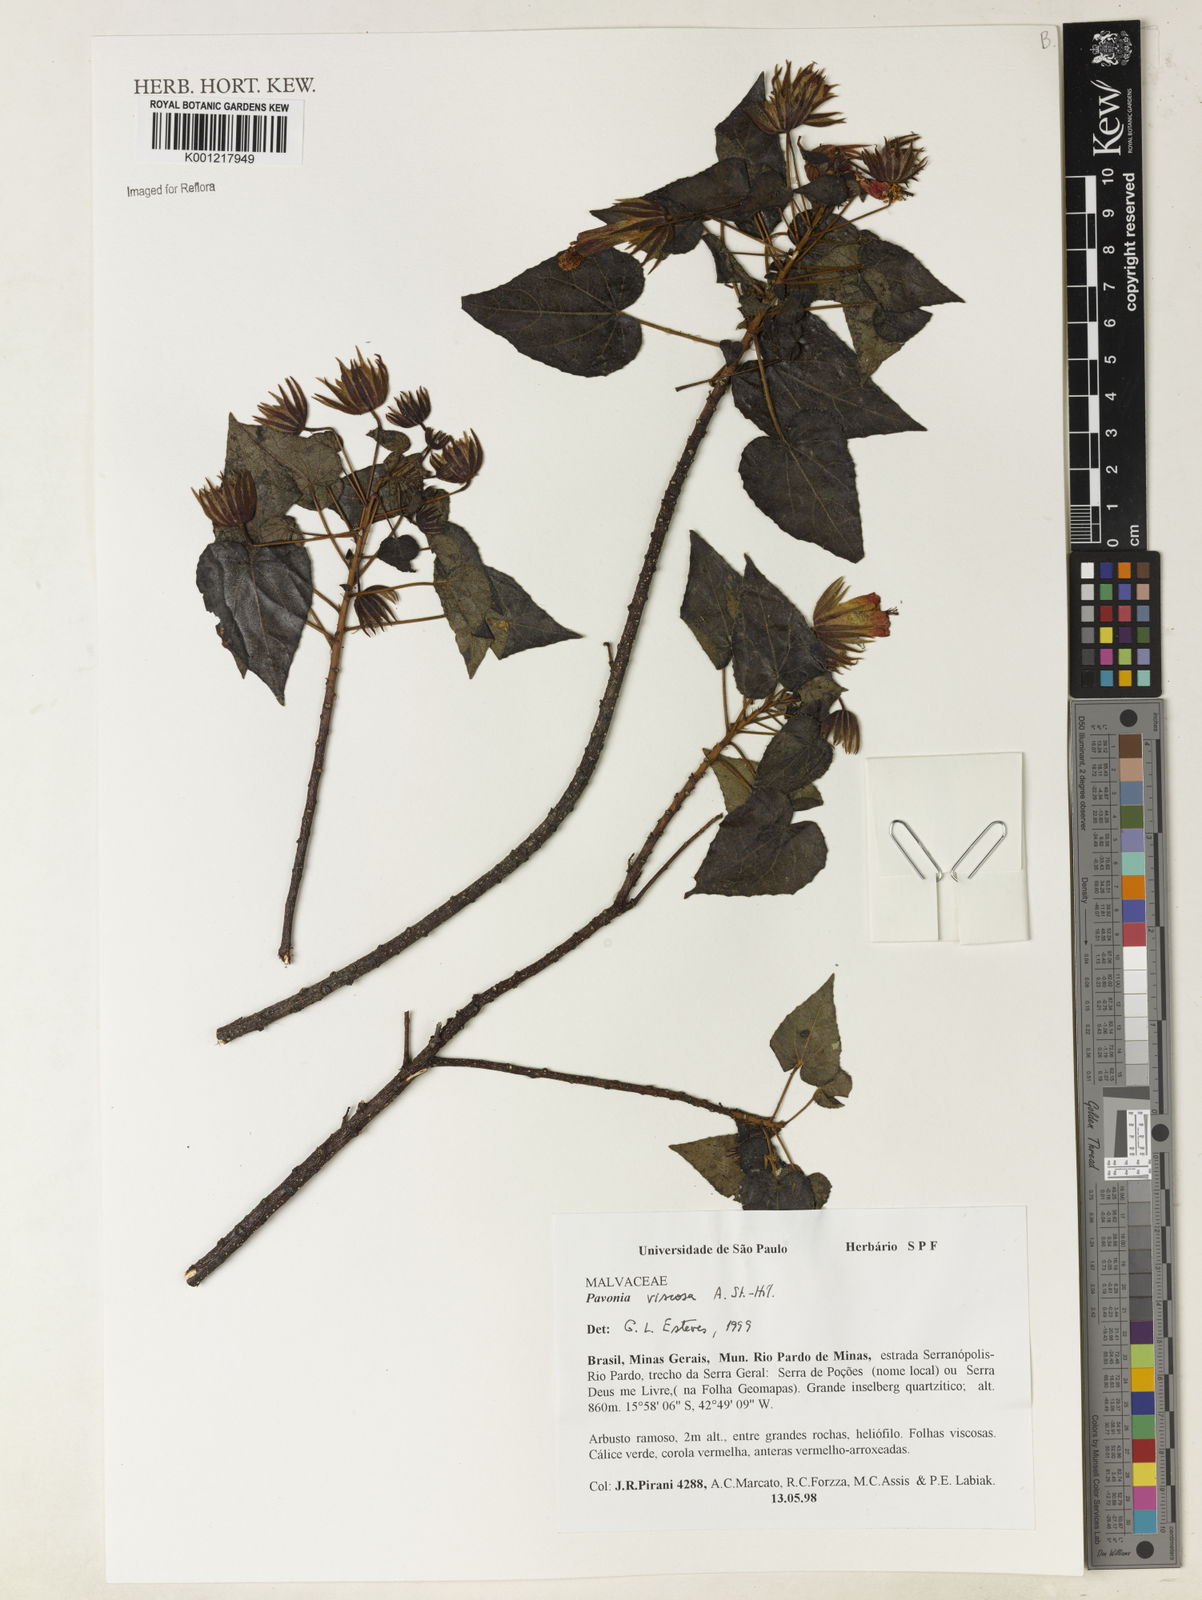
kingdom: Plantae
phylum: Tracheophyta
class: Magnoliopsida
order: Malvales
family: Malvaceae
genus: Pavonia
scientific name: Pavonia viscosa
